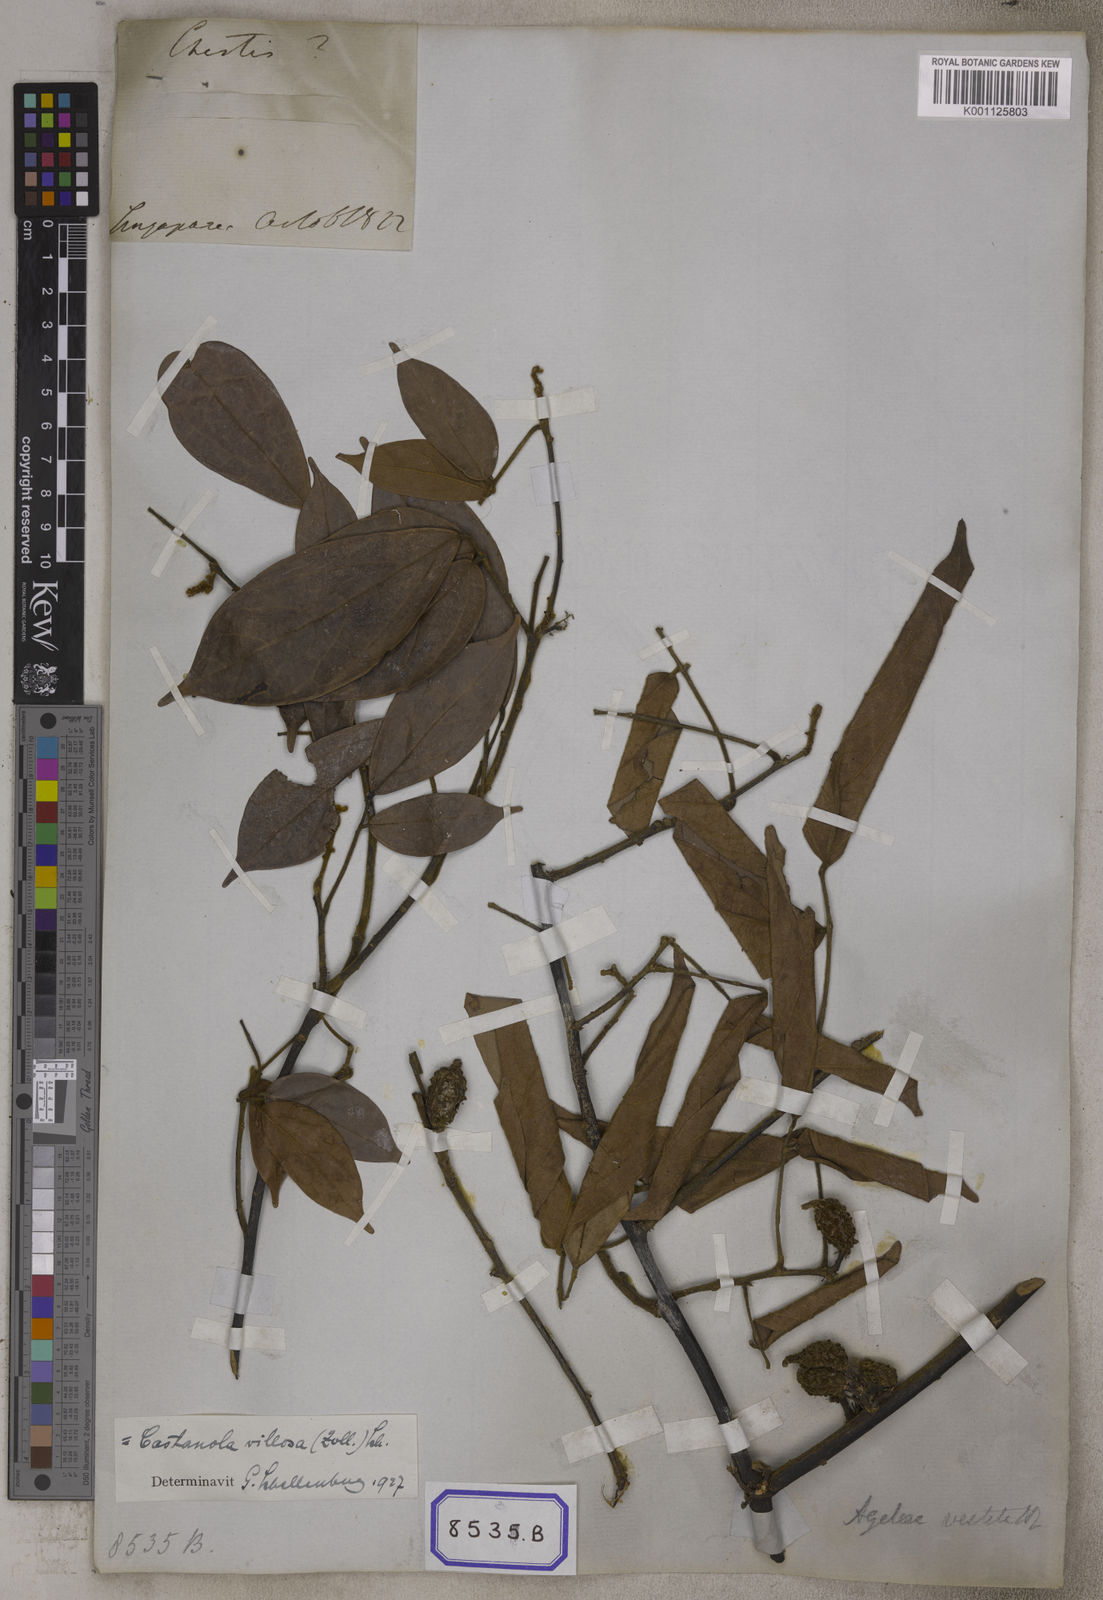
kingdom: Plantae
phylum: Tracheophyta
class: Magnoliopsida
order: Oxalidales
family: Connaraceae
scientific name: Connaraceae
